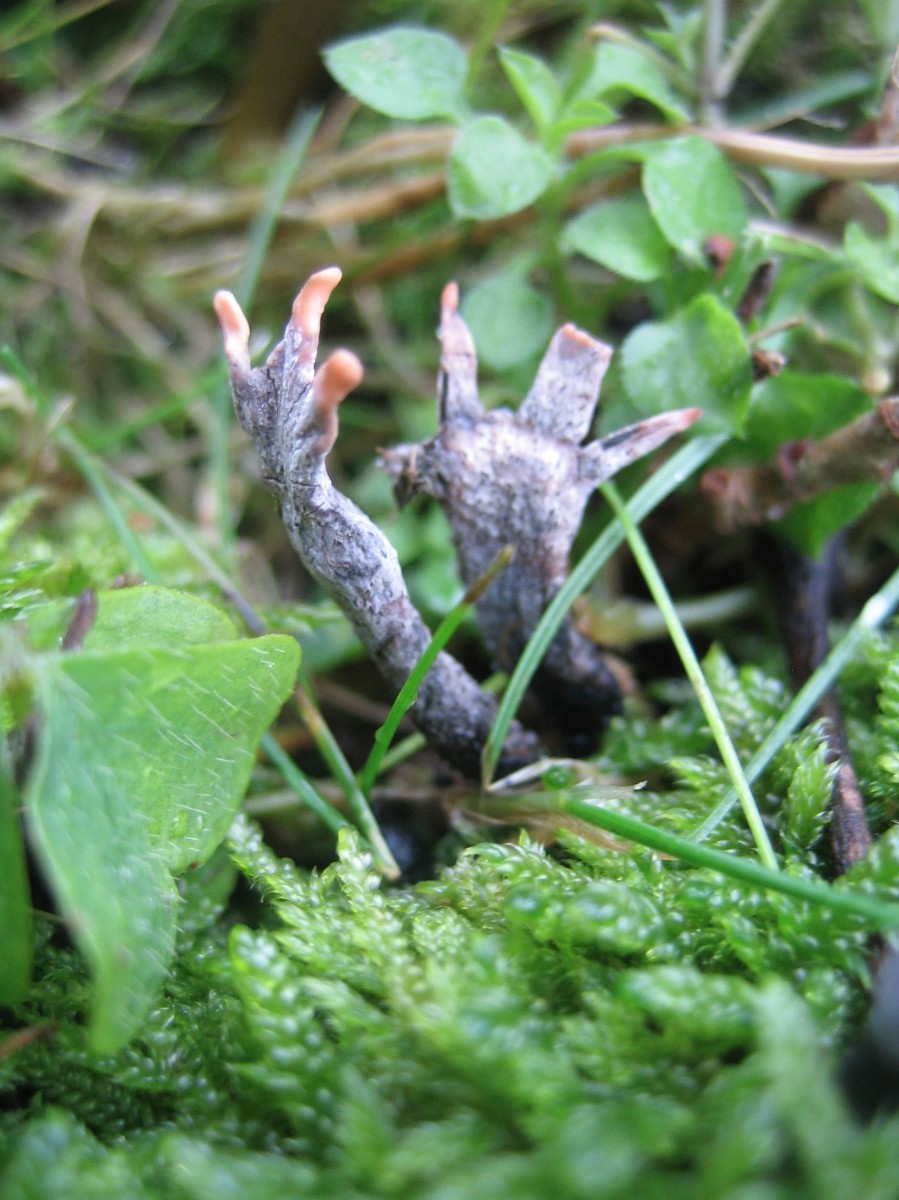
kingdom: Fungi
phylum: Ascomycota
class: Sordariomycetes
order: Xylariales
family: Xylariaceae
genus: Xylaria
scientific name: Xylaria hypoxylon
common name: grenet stødsvamp
